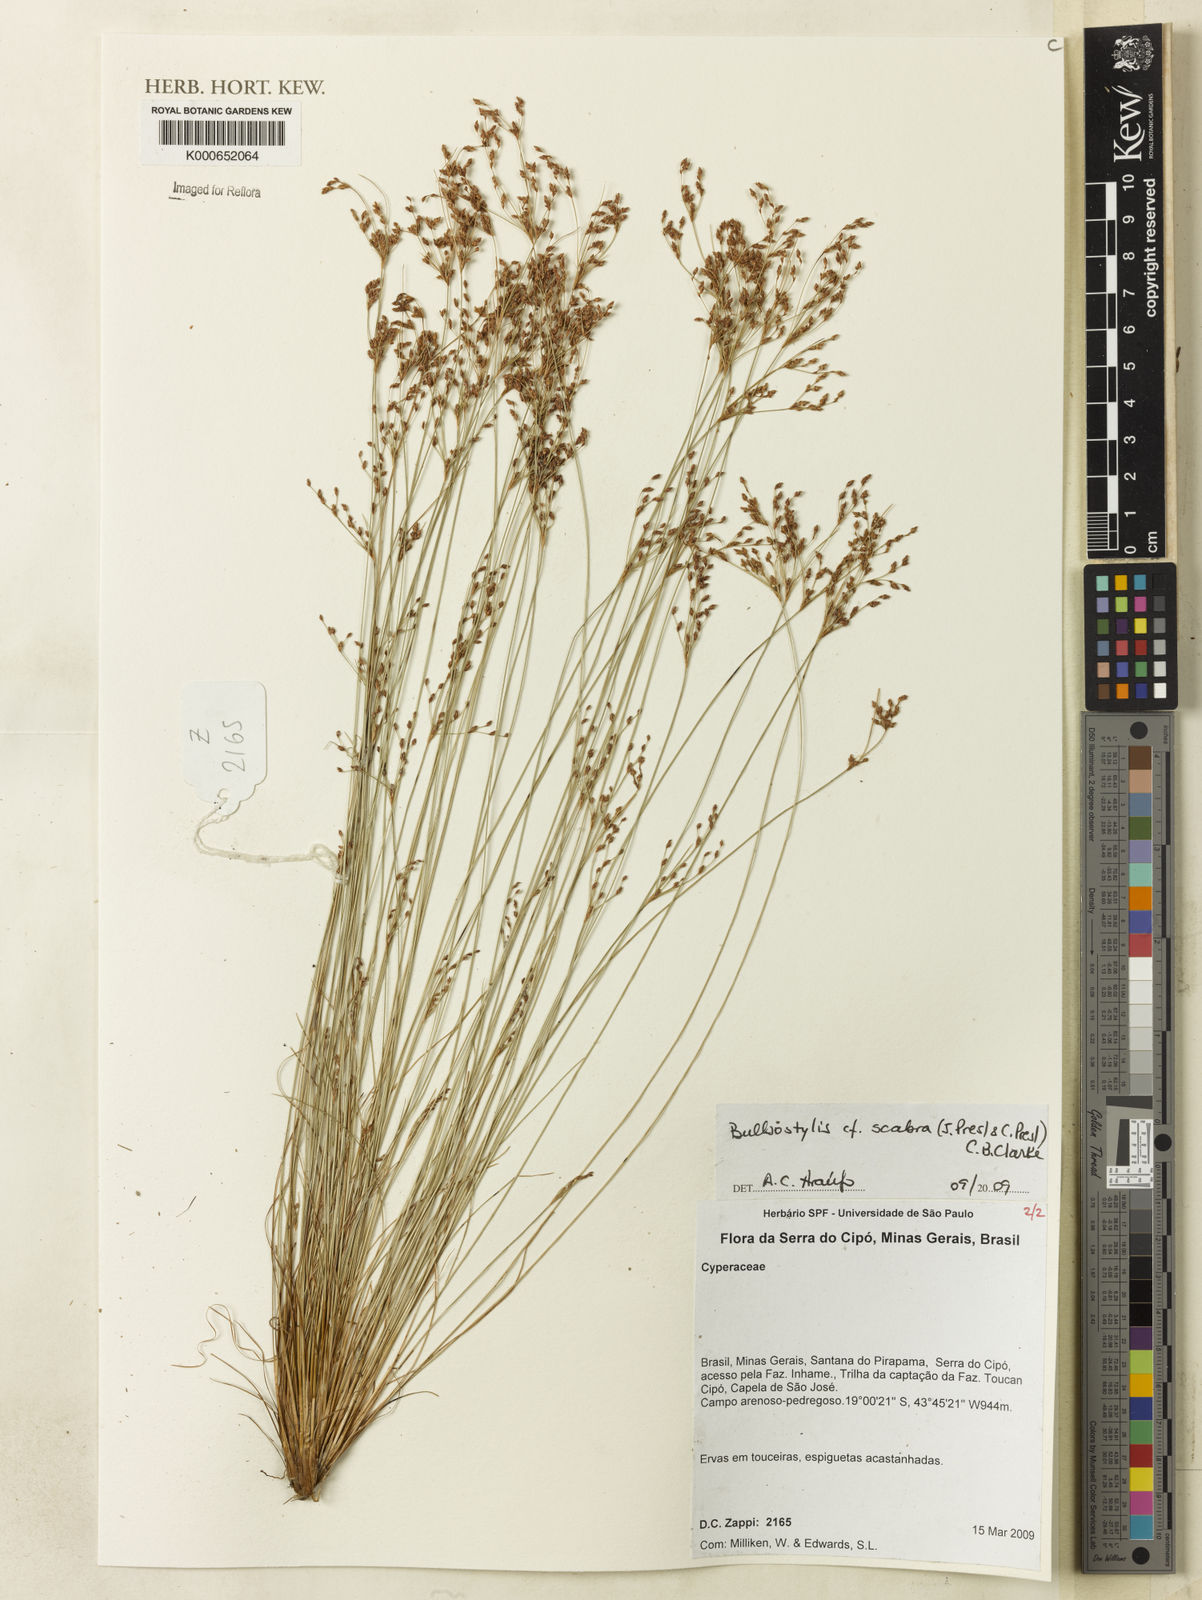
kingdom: Plantae
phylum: Tracheophyta
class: Liliopsida
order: Poales
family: Cyperaceae
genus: Bulbostylis
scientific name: Bulbostylis scabra
